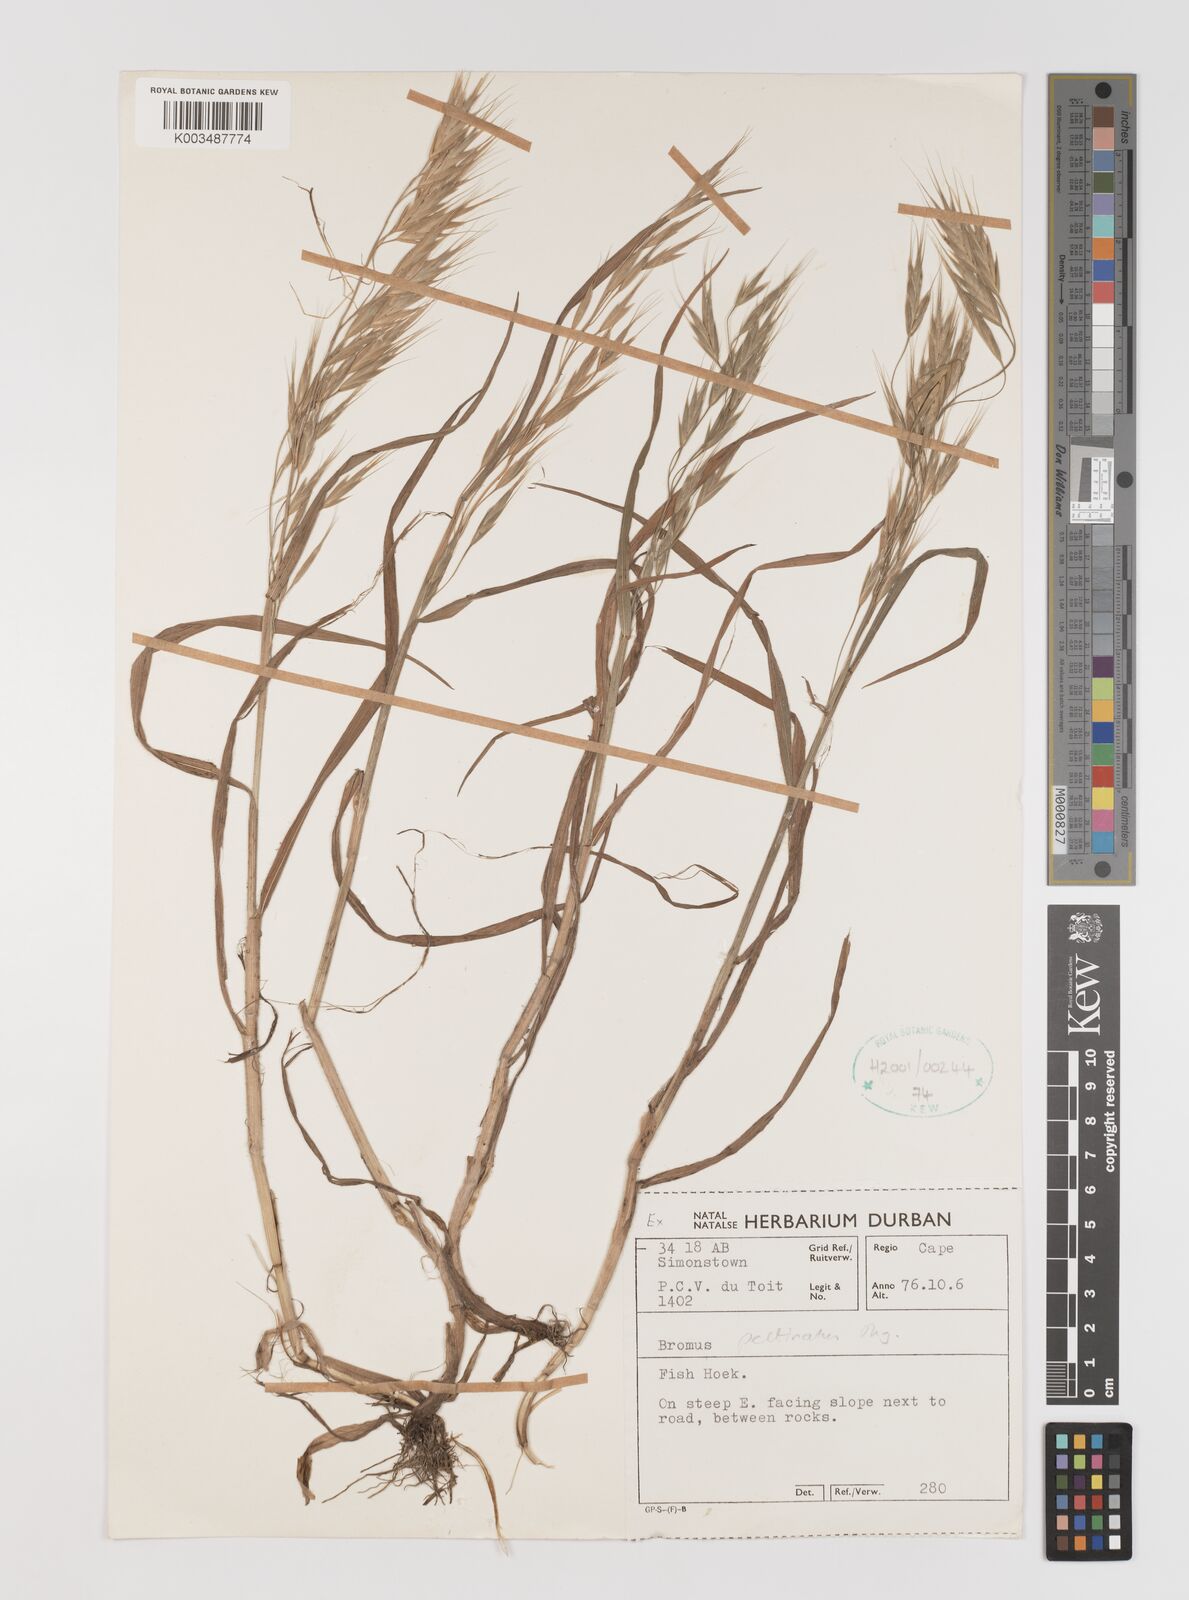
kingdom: Plantae
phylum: Tracheophyta
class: Liliopsida
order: Poales
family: Poaceae
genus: Bromus
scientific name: Bromus pectinatus
